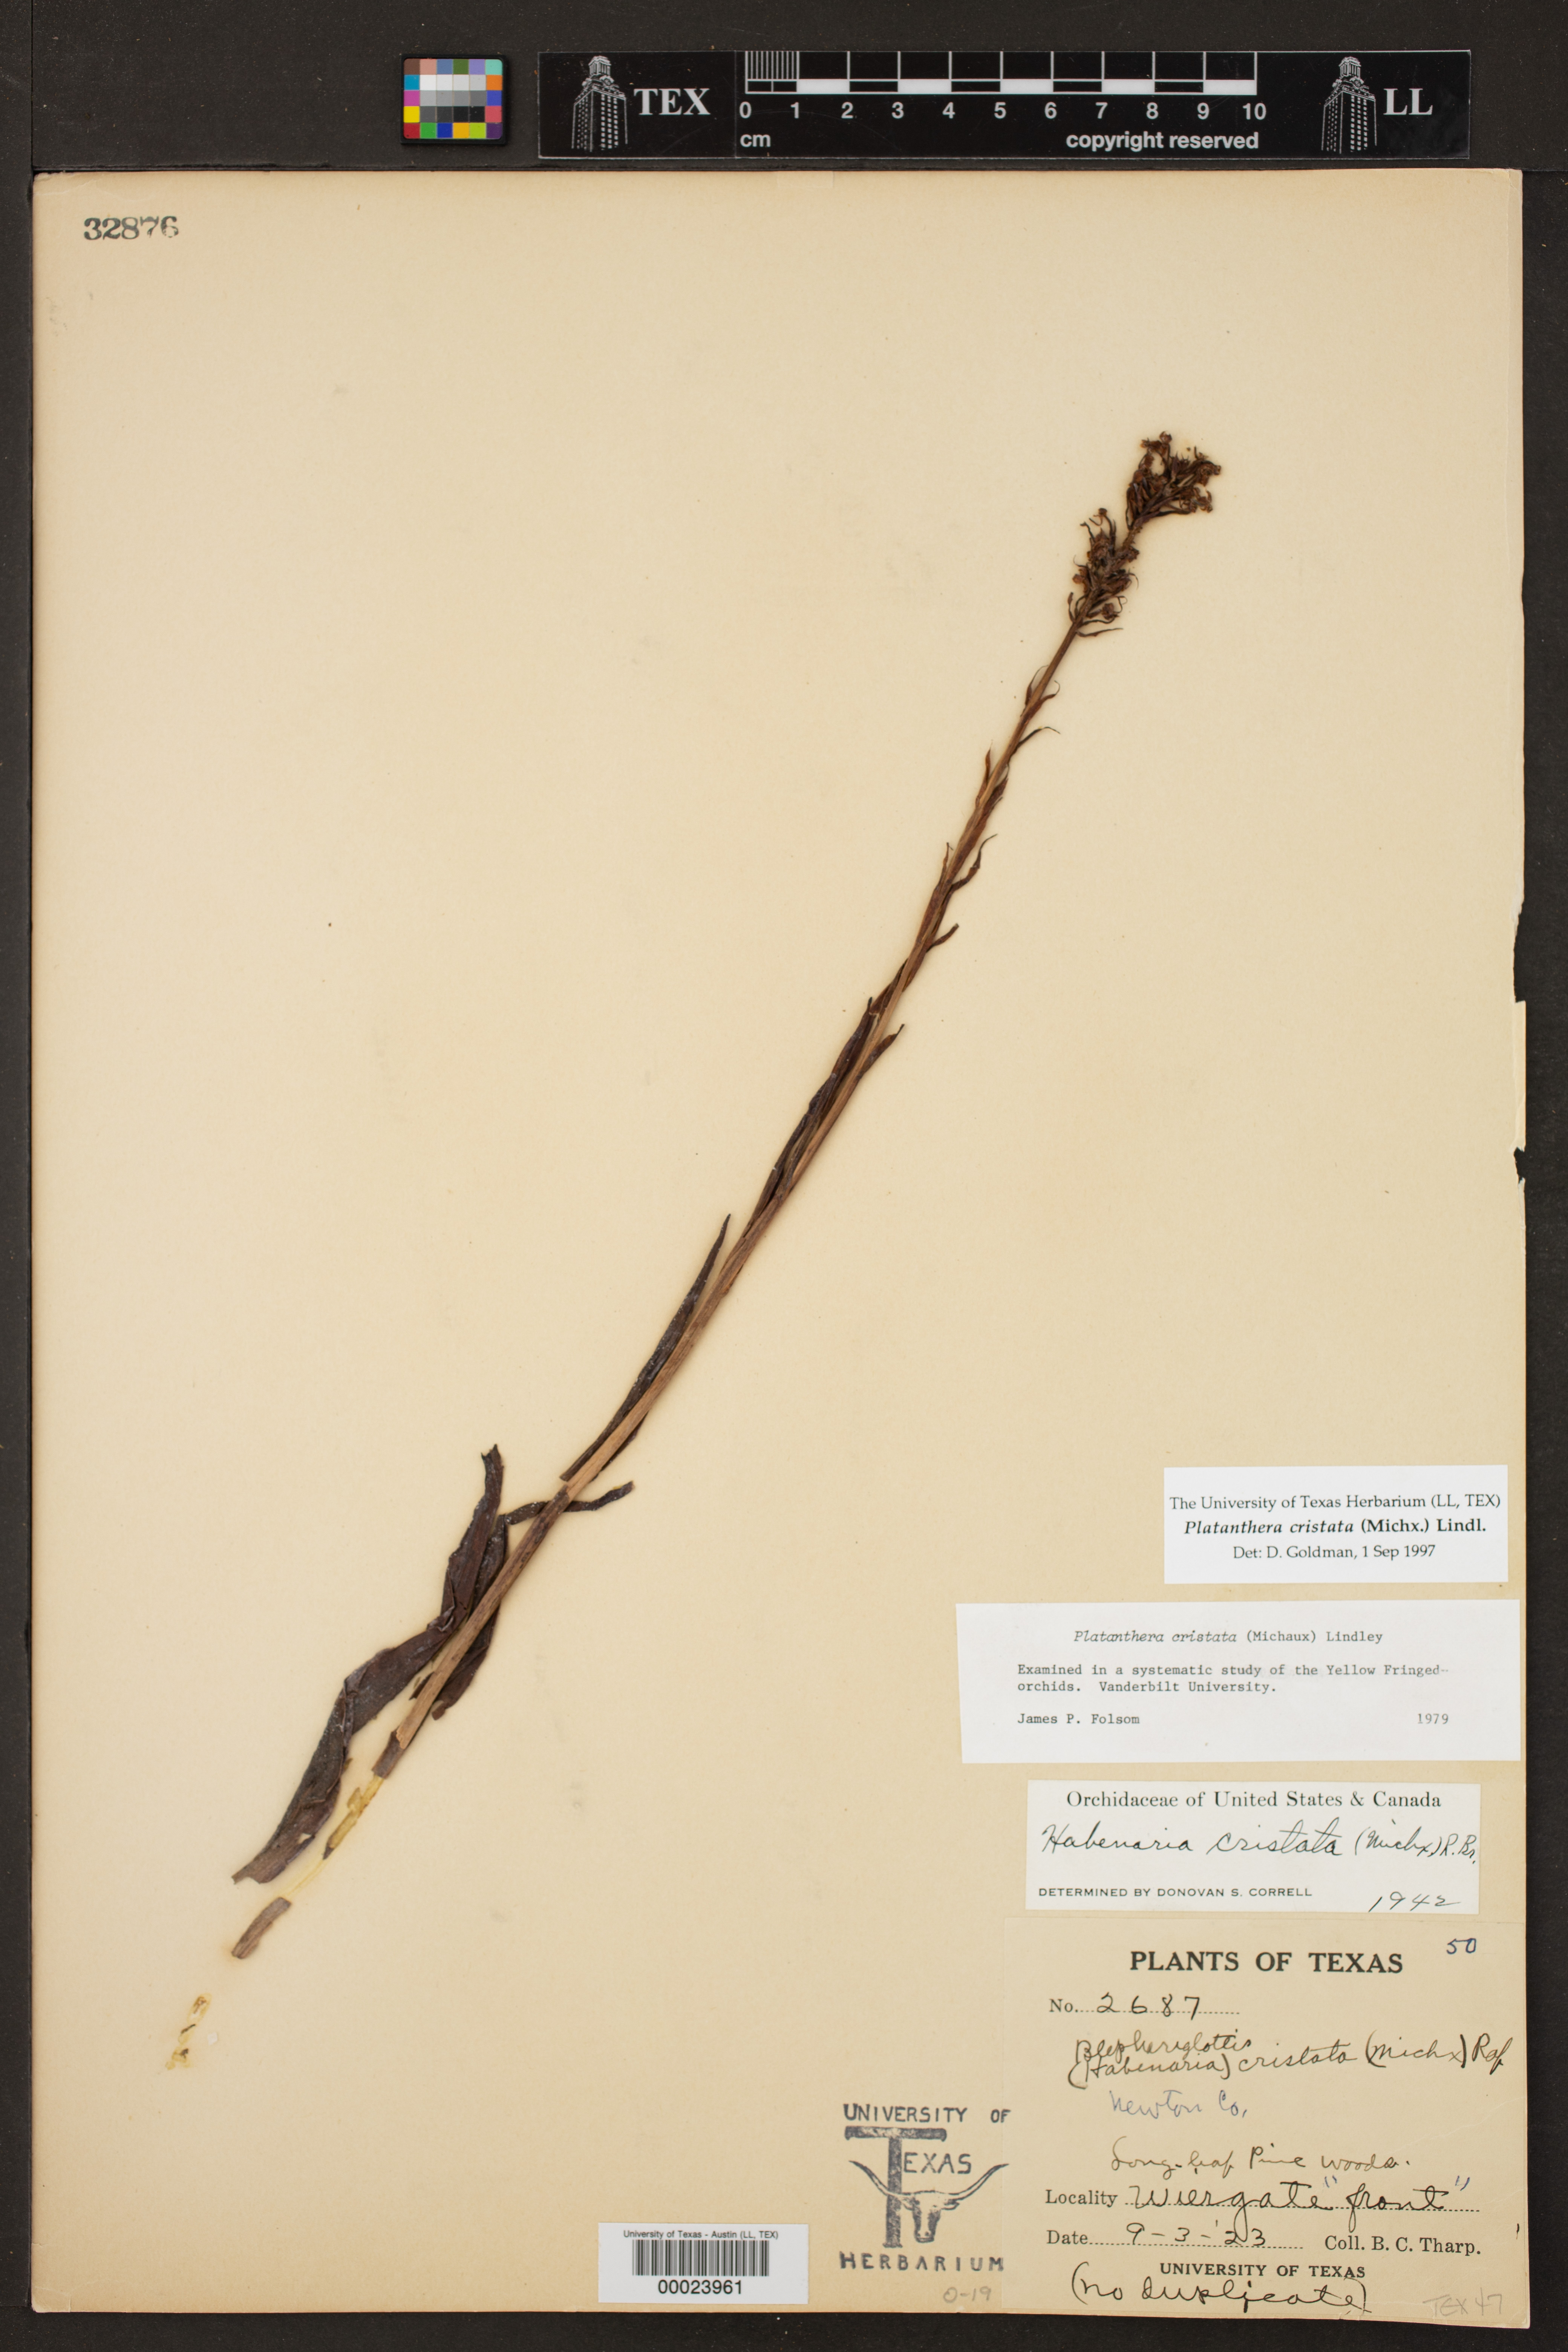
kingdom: Plantae
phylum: Tracheophyta
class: Liliopsida
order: Asparagales
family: Orchidaceae
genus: Platanthera
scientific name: Platanthera cristata
